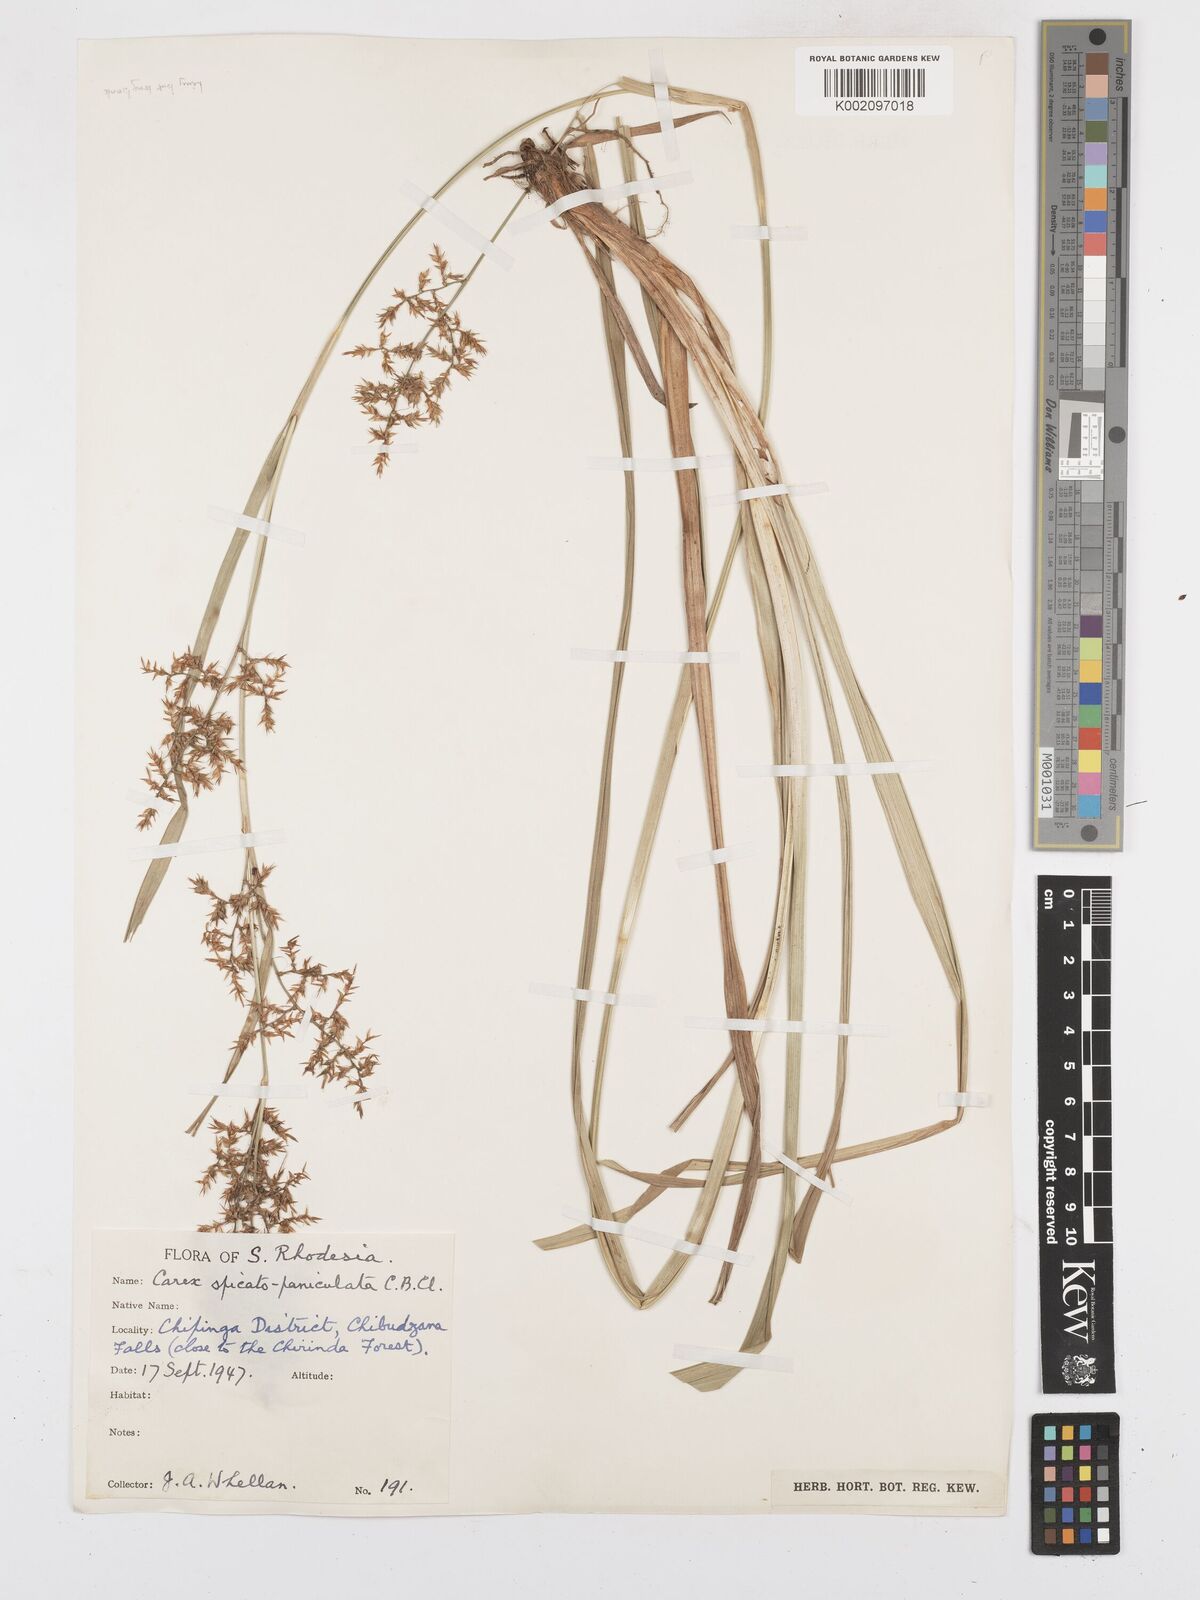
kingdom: Plantae
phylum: Tracheophyta
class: Liliopsida
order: Poales
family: Cyperaceae
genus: Carex
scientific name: Carex spicatopaniculata
